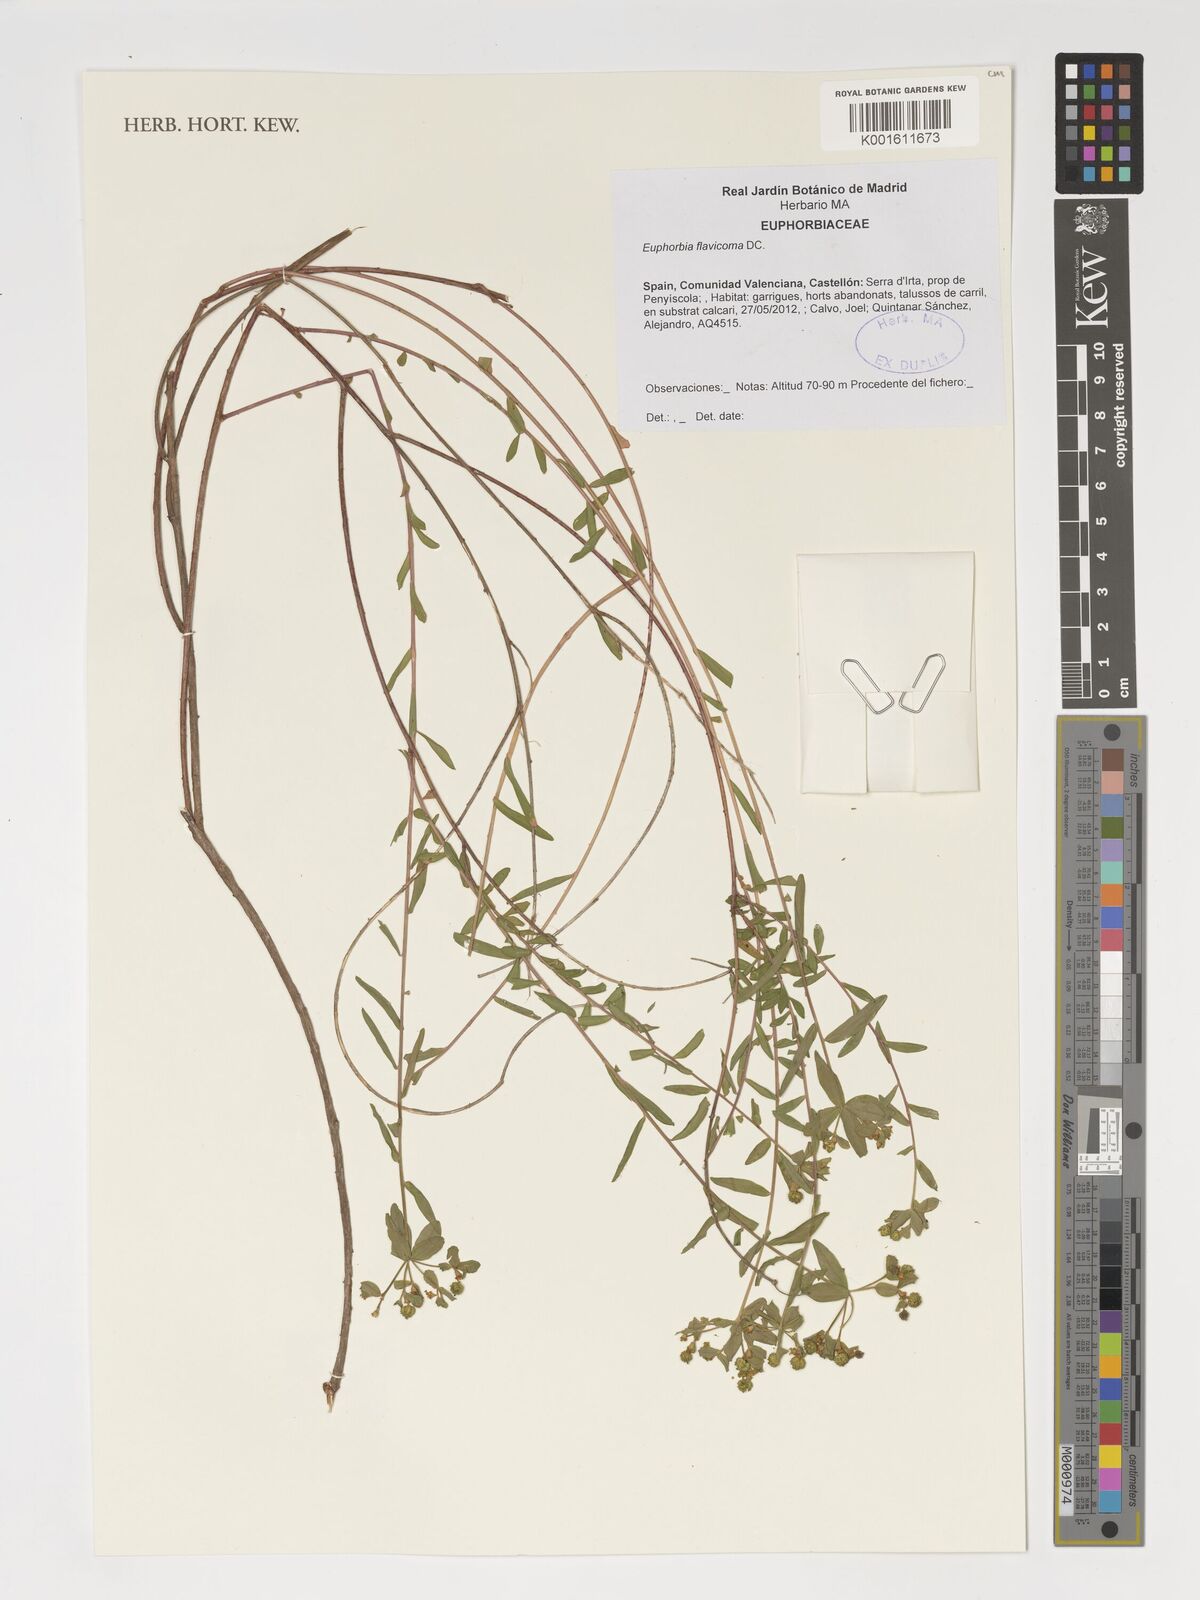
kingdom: Plantae
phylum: Tracheophyta
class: Magnoliopsida
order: Malpighiales
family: Euphorbiaceae
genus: Euphorbia
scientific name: Euphorbia flavicoma
